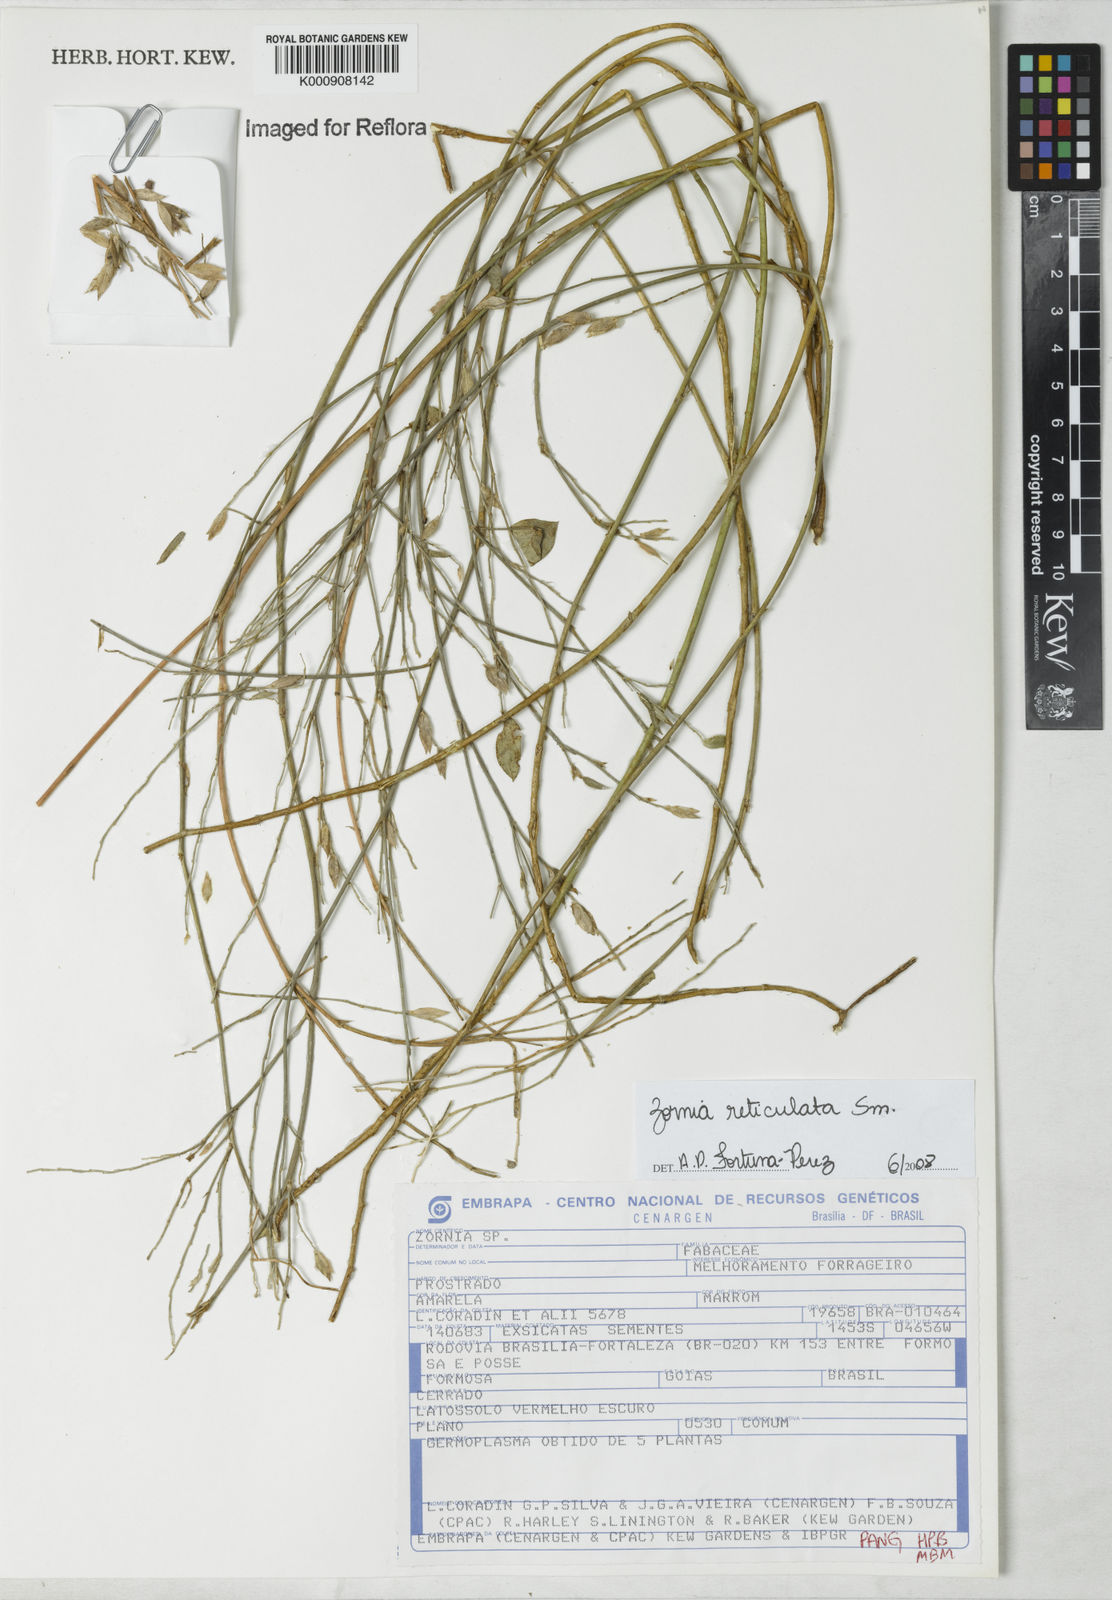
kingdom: Plantae
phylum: Tracheophyta
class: Magnoliopsida
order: Fabales
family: Fabaceae
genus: Zornia
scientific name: Zornia reticulata
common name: Reticulate viperina
